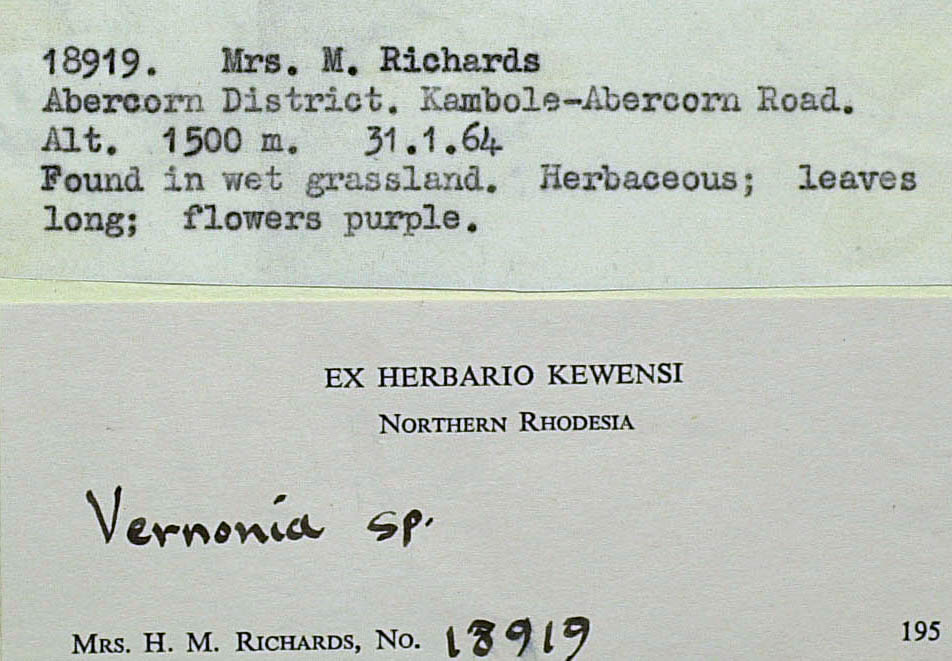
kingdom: Plantae
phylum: Tracheophyta
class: Magnoliopsida
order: Asterales
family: Asteraceae
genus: Vernonia
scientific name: Vernonia isoetifolia
